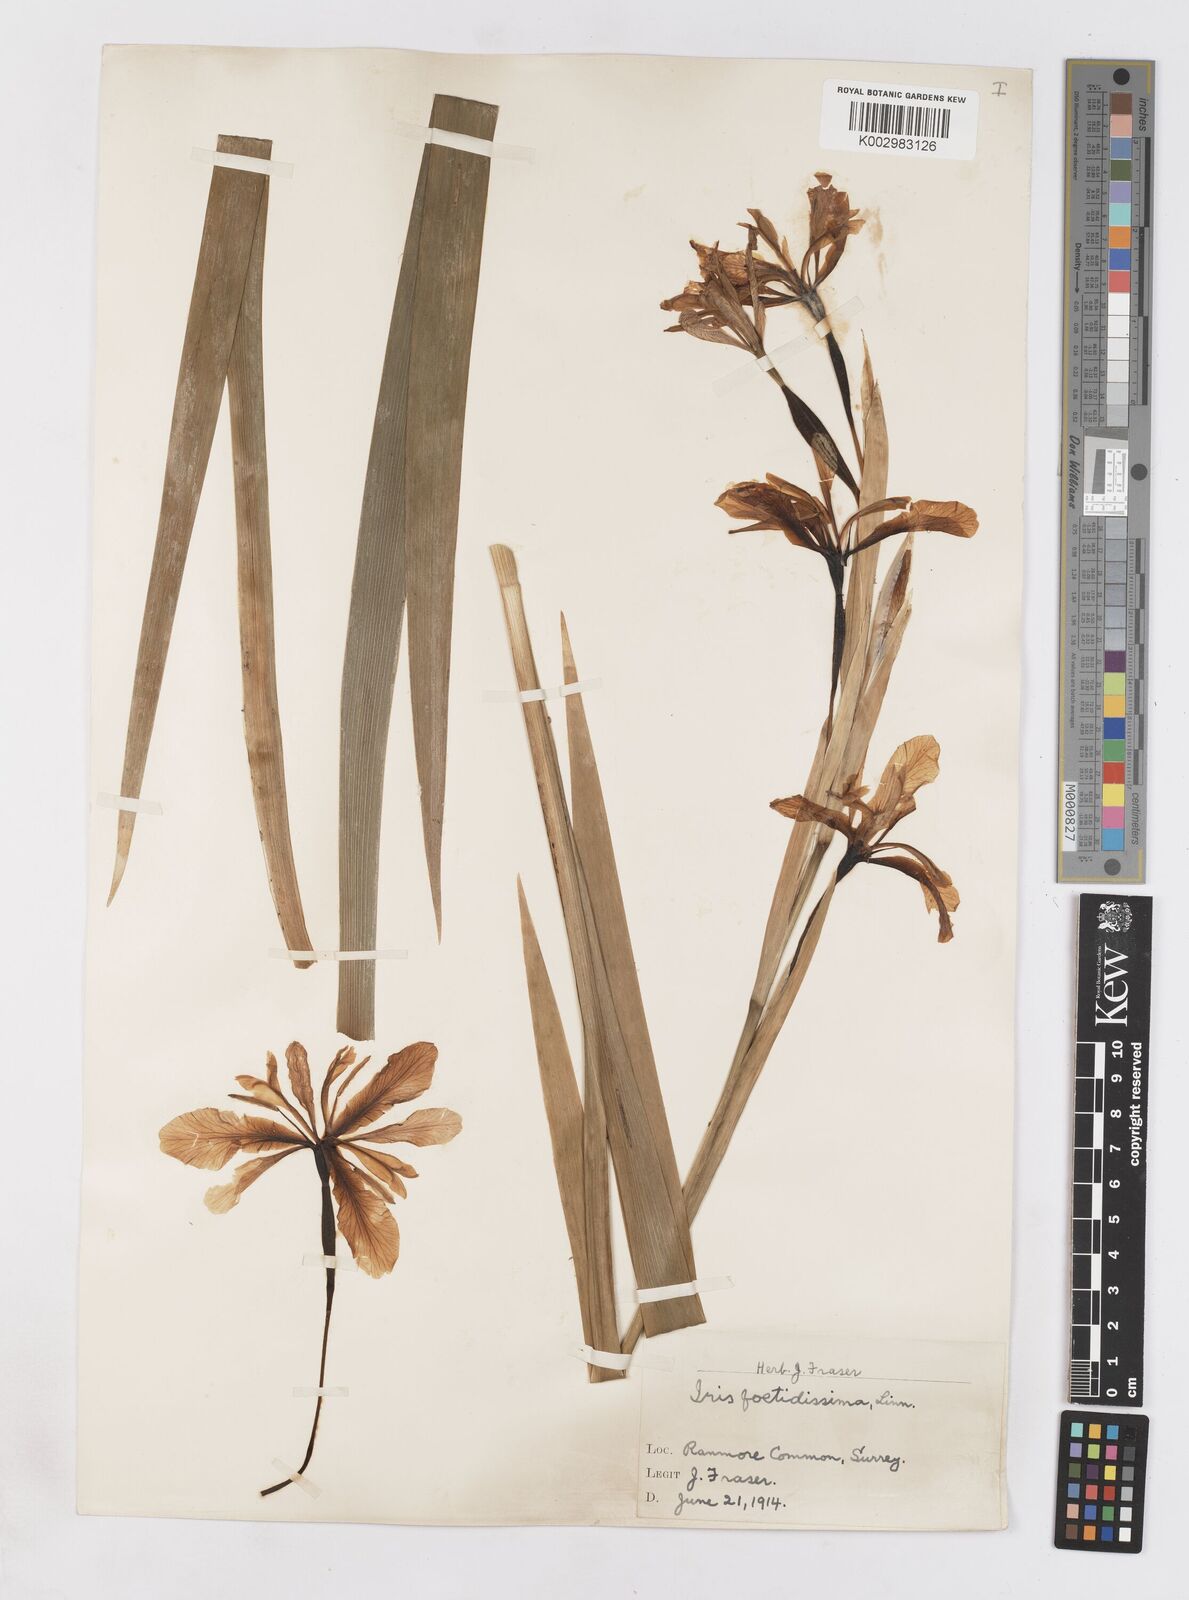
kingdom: Plantae
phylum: Tracheophyta
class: Liliopsida
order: Asparagales
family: Iridaceae
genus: Iris
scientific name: Iris foetidissima
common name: Stinking iris
